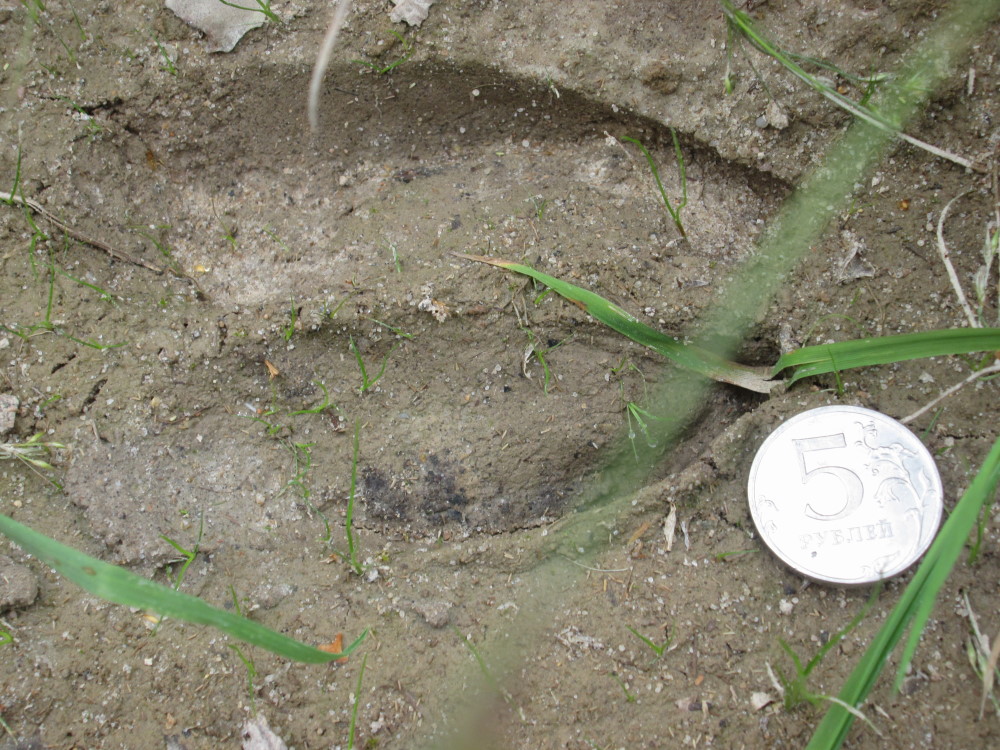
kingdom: Animalia
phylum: Chordata
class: Mammalia
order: Artiodactyla
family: Cervidae
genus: Alces
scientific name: Alces alces
